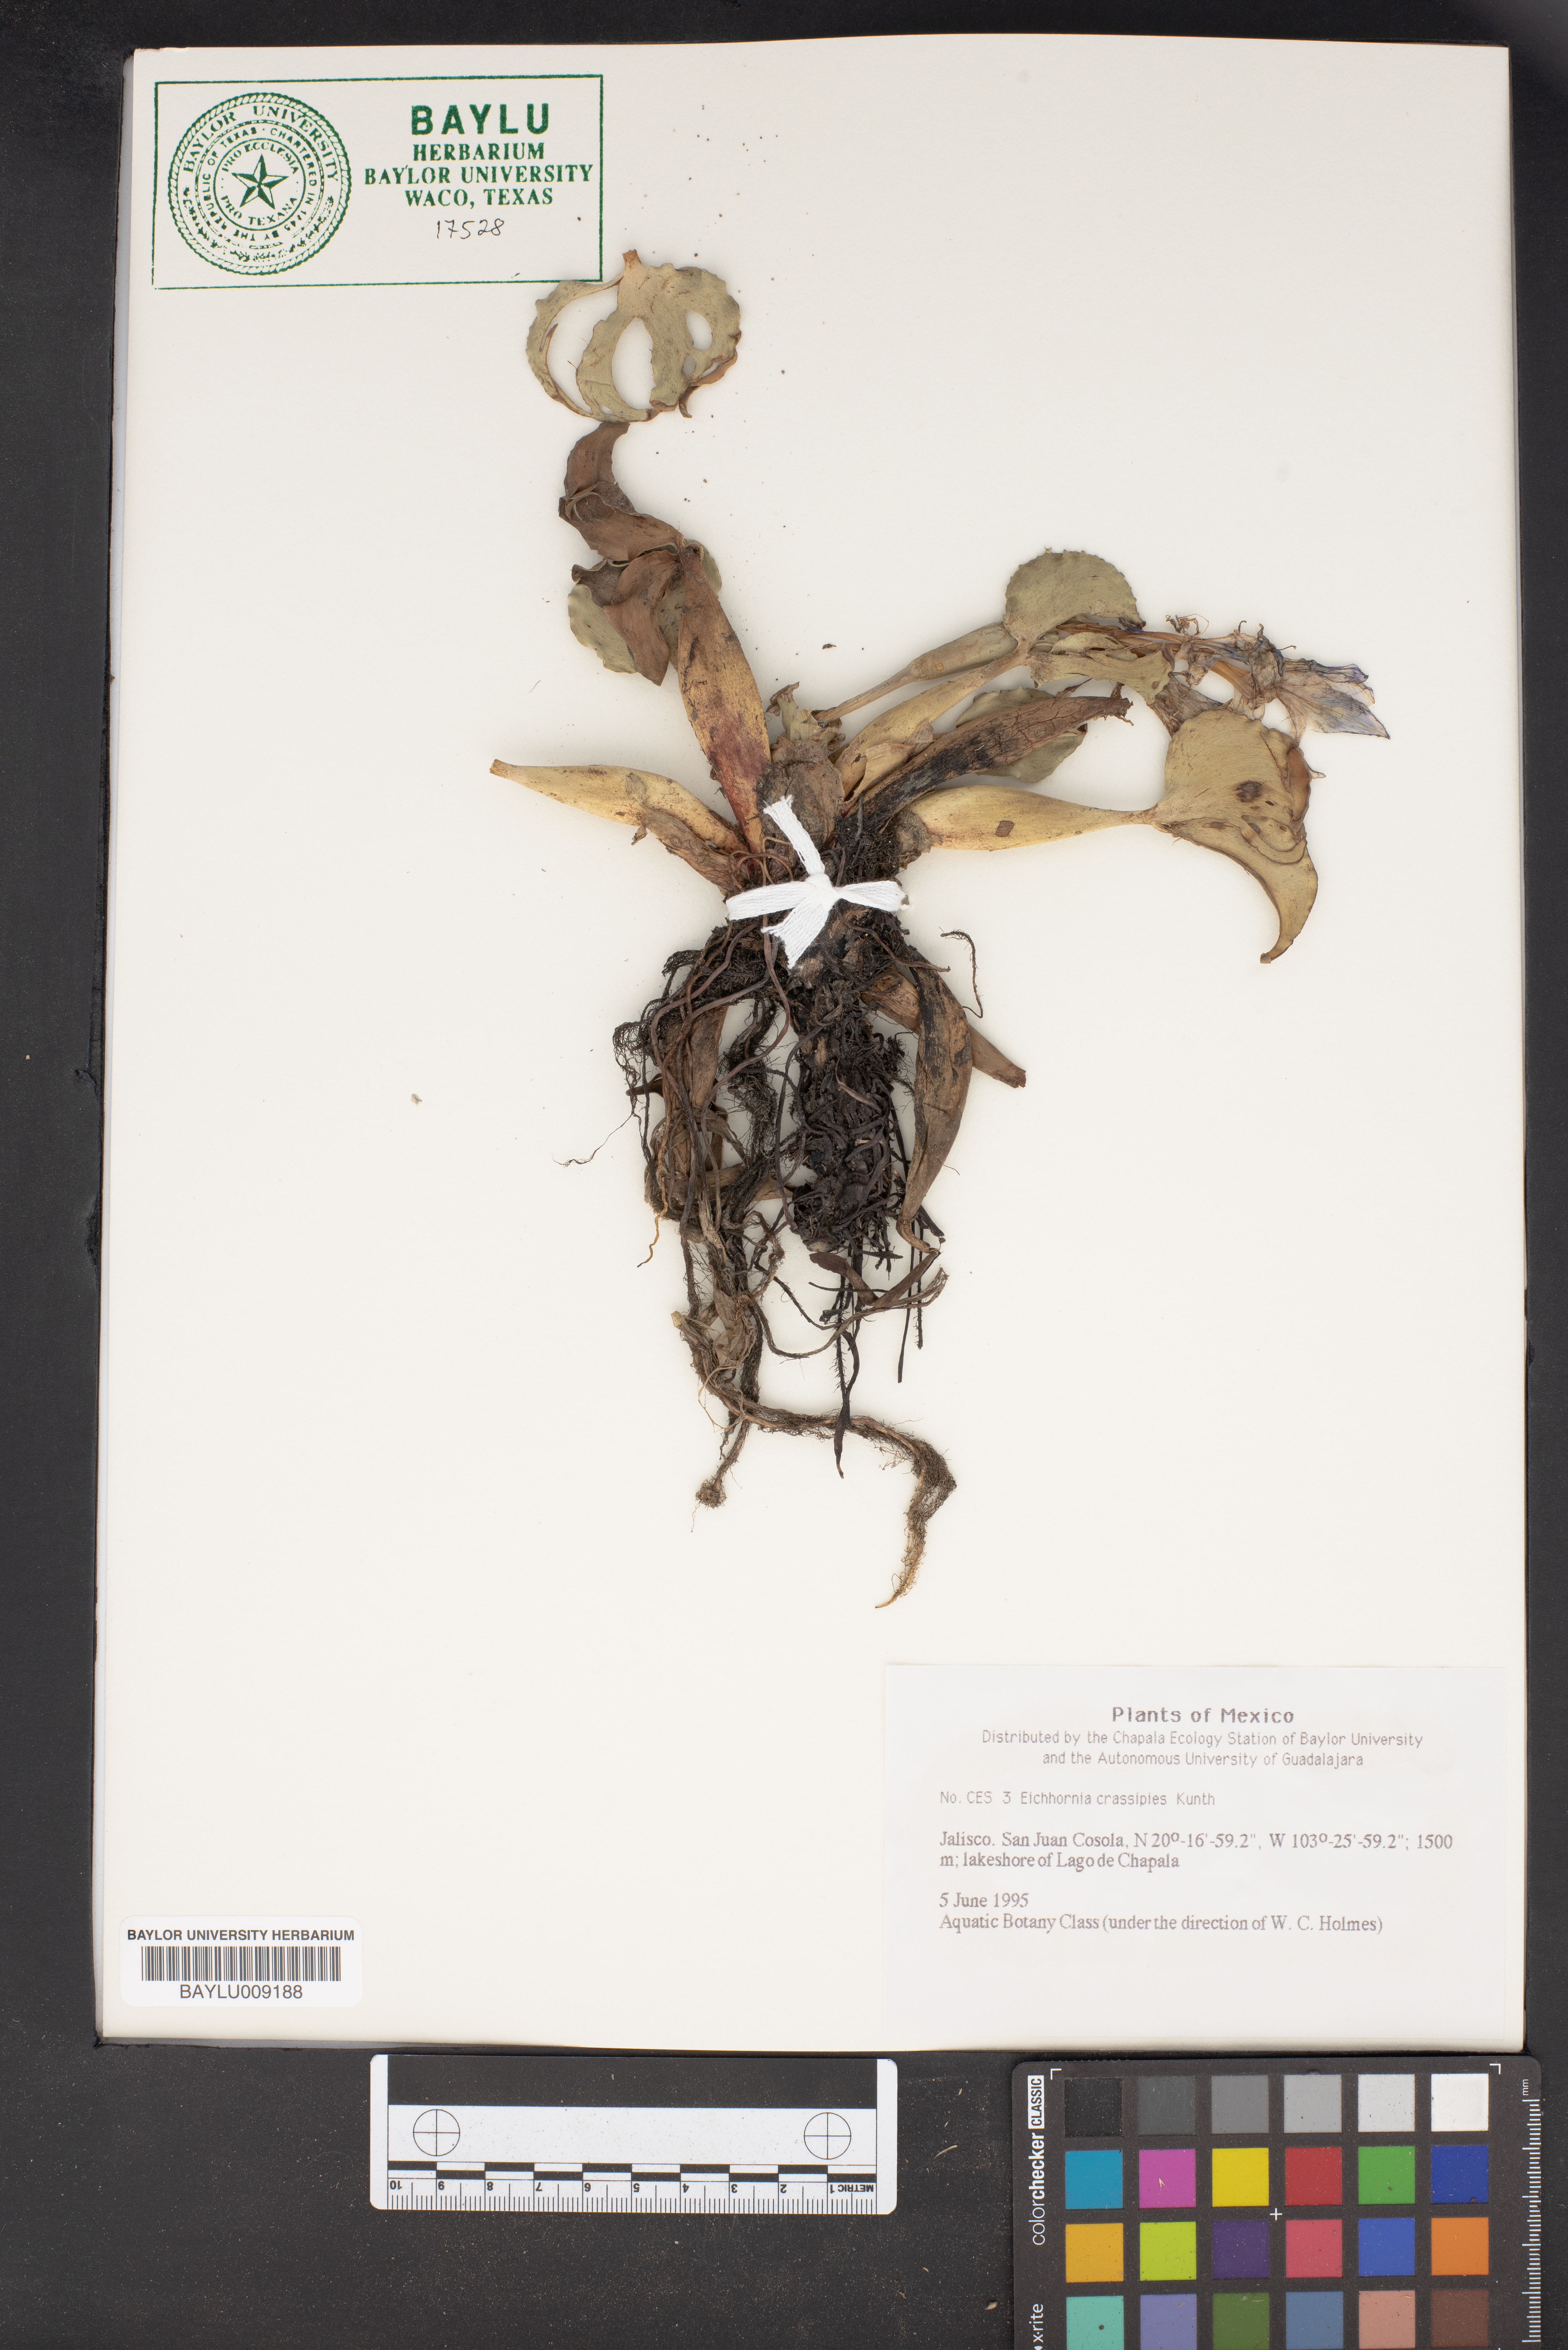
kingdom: Plantae
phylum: Tracheophyta
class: Liliopsida
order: Commelinales
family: Pontederiaceae
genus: Pontederia
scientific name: Pontederia crassipes
